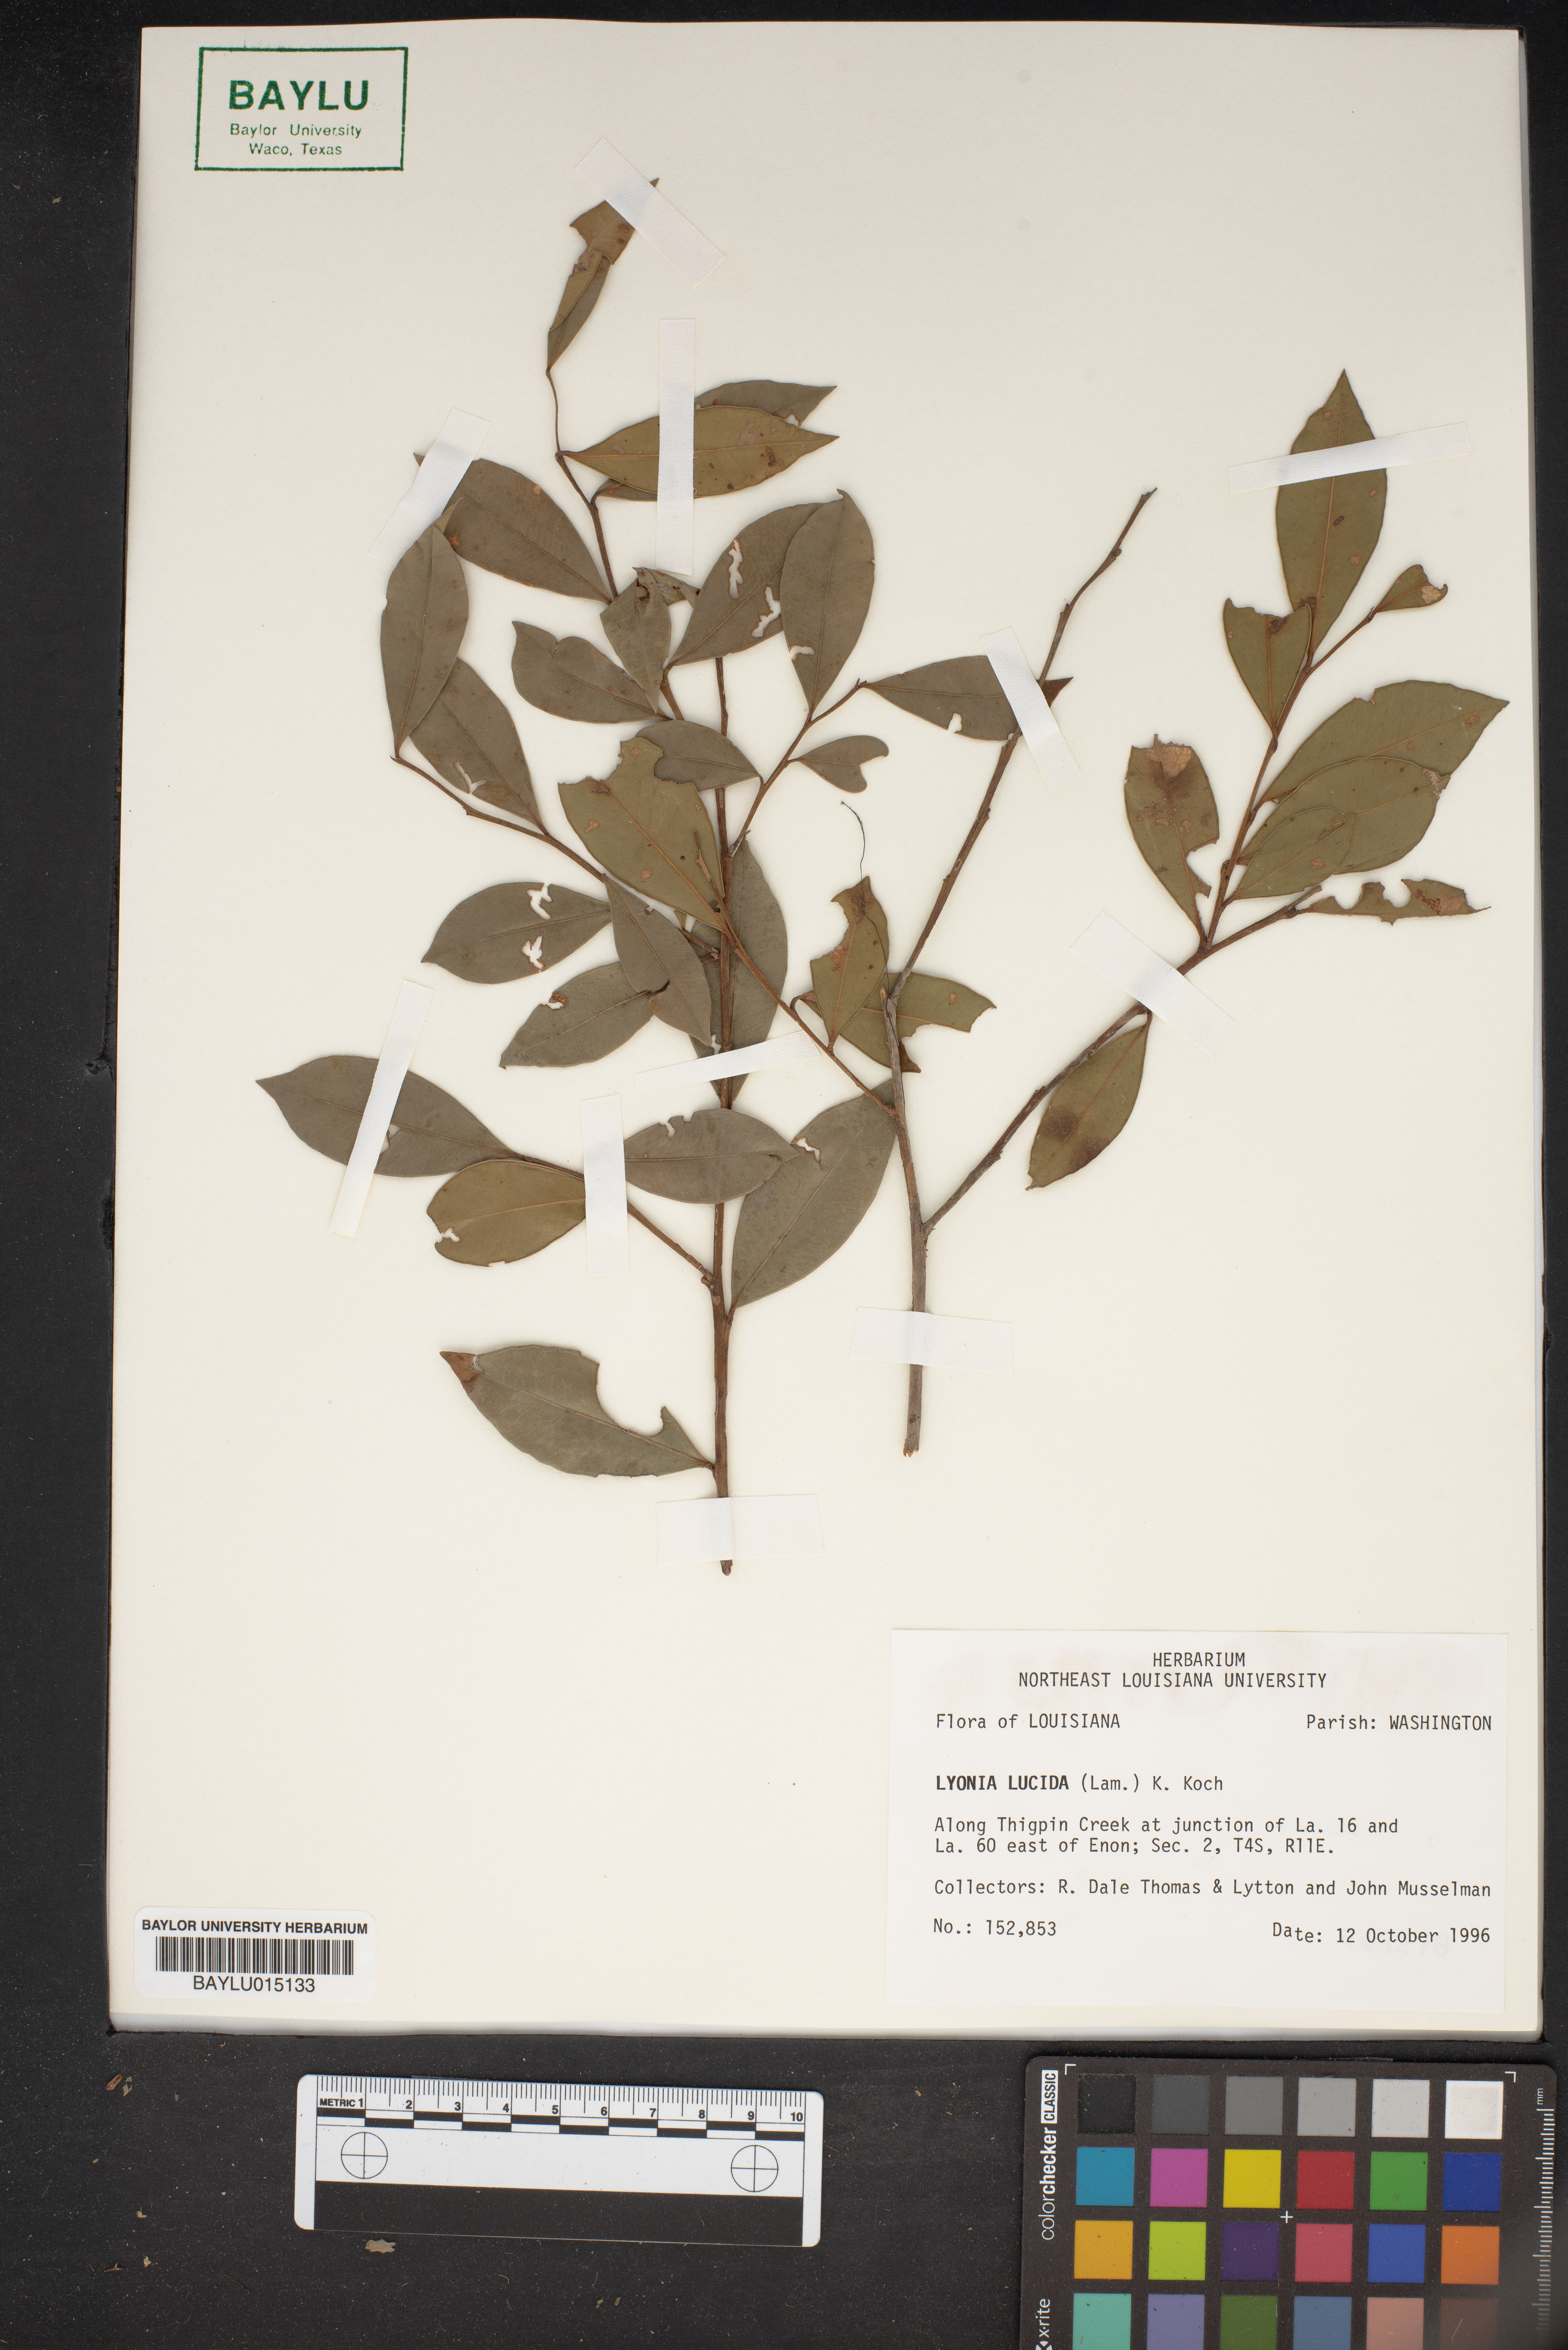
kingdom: Plantae
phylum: Tracheophyta
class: Magnoliopsida
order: Ericales
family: Ericaceae
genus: Lyonia
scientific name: Lyonia lucida
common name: Fetterbush
